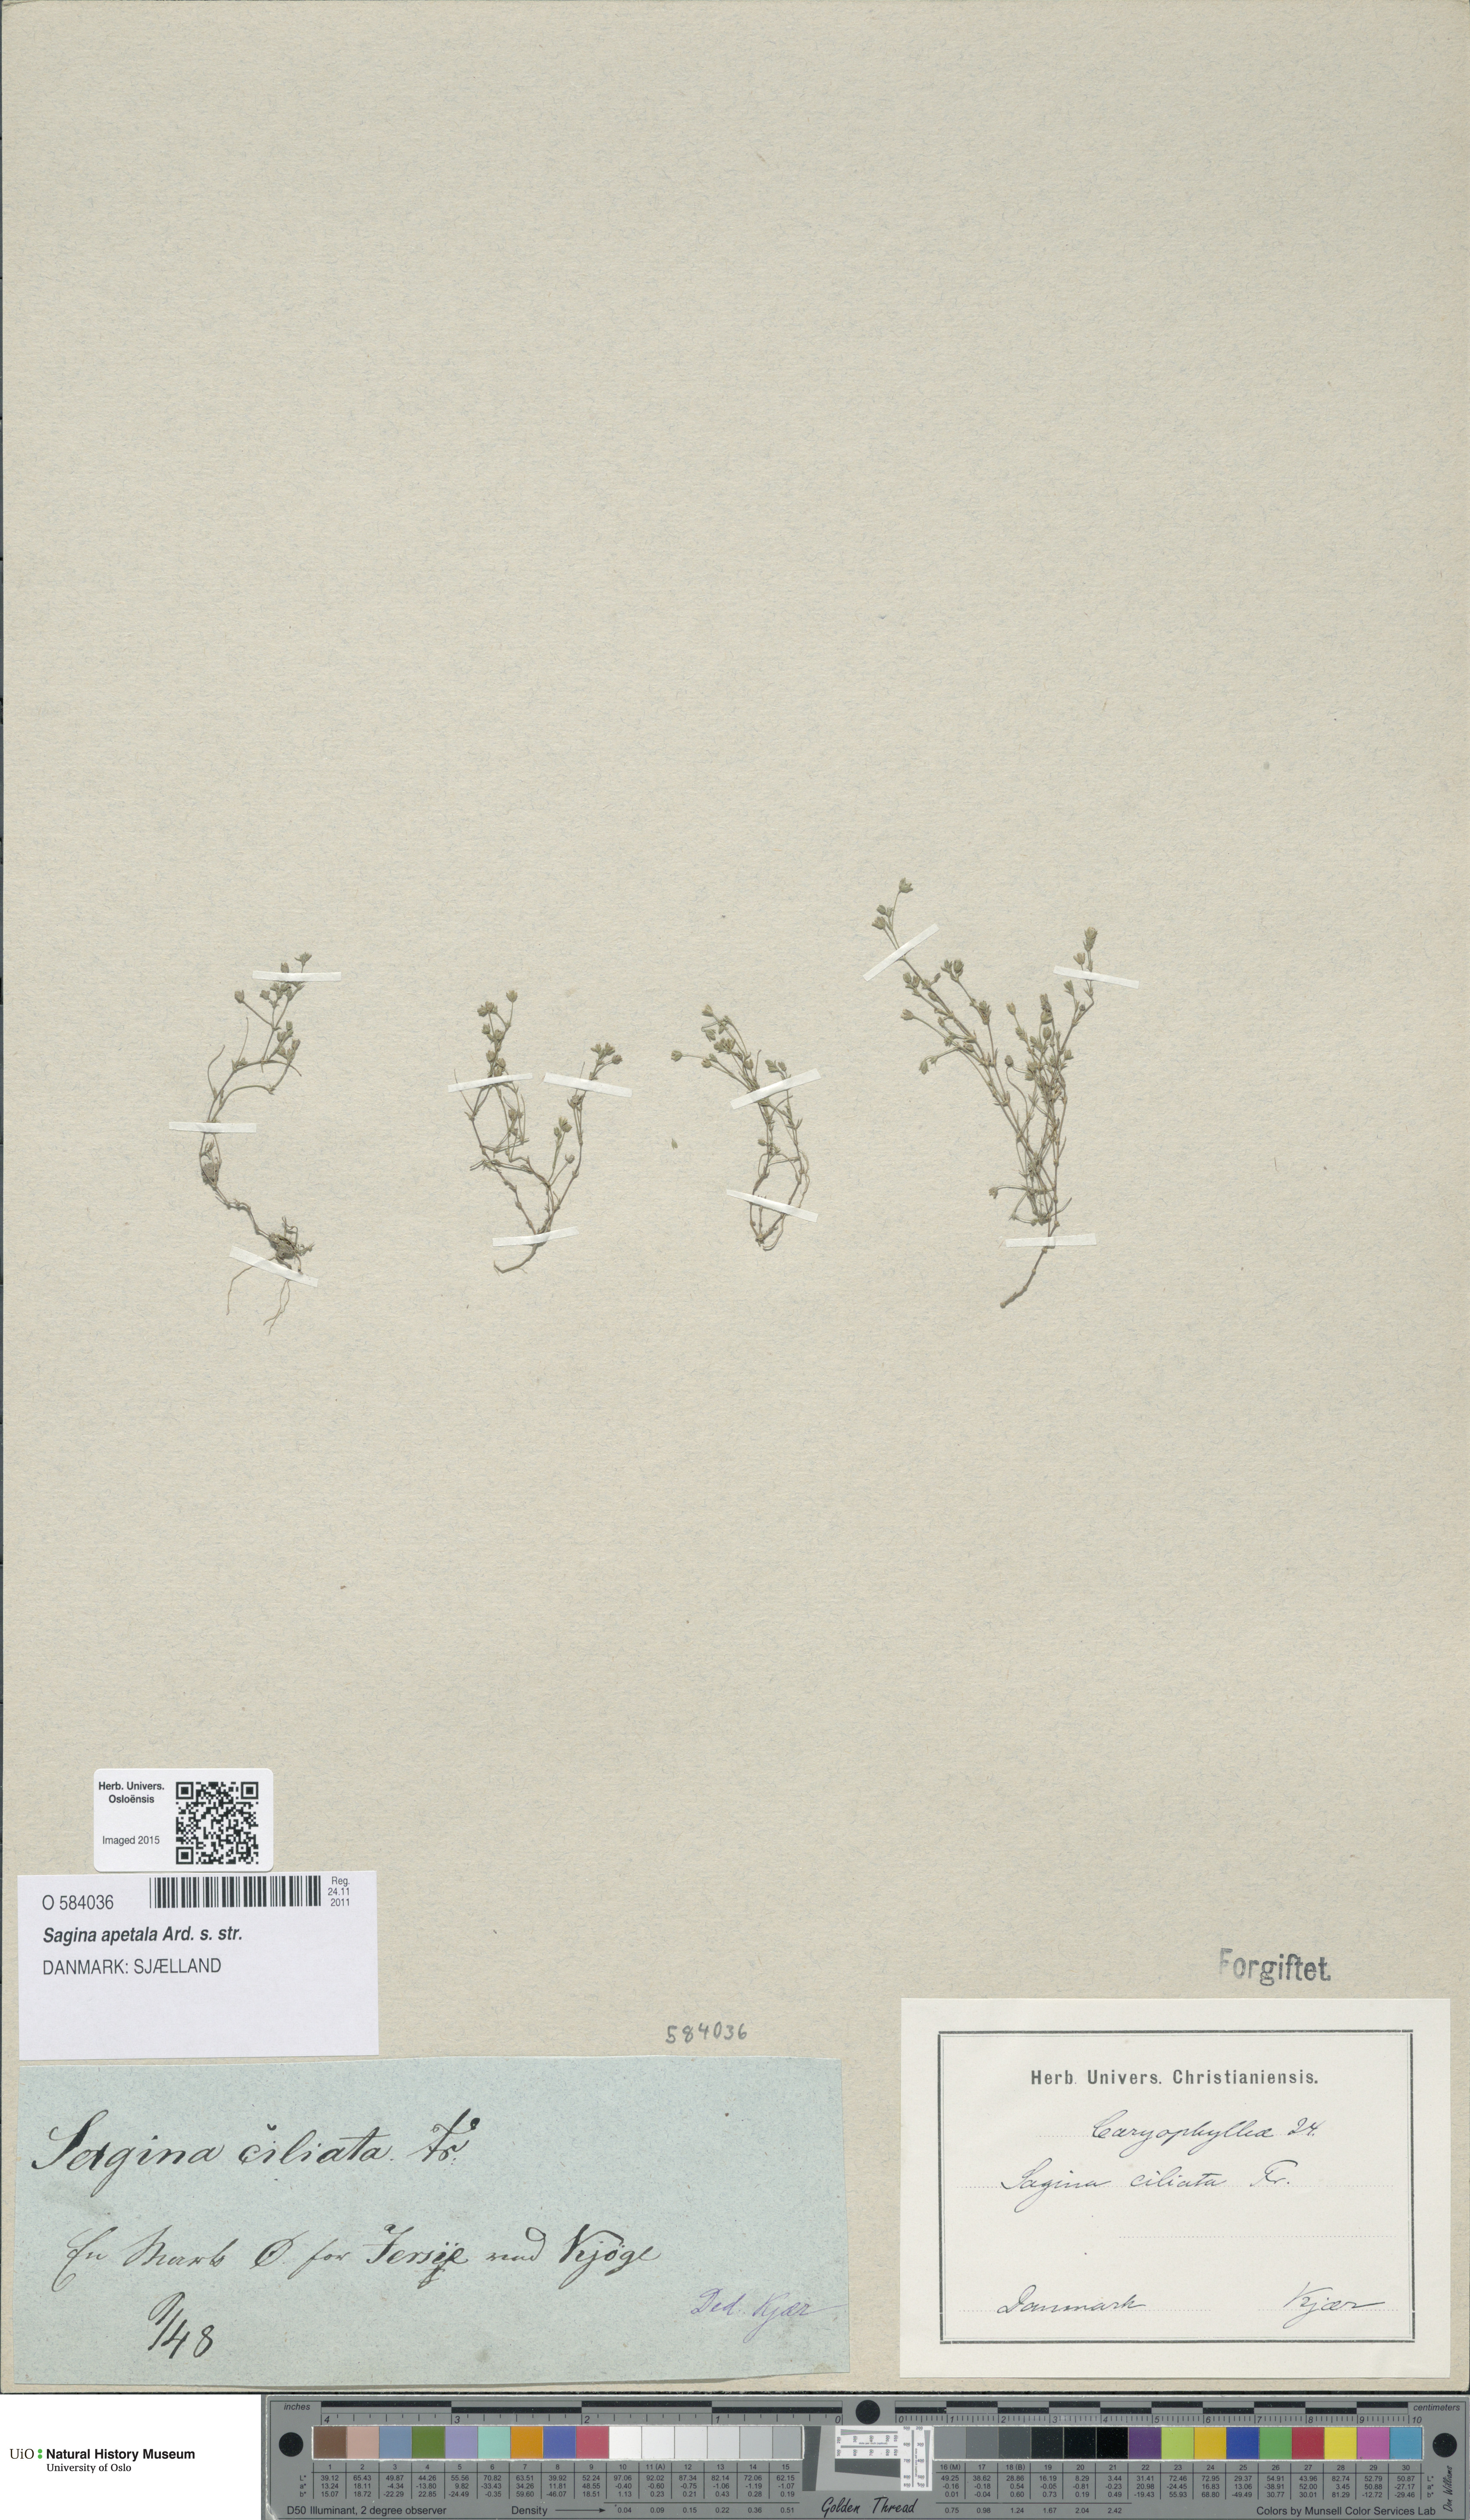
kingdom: Plantae
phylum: Tracheophyta
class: Magnoliopsida
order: Caryophyllales
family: Caryophyllaceae
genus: Sagina
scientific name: Sagina apetala
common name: Annual pearlwort
